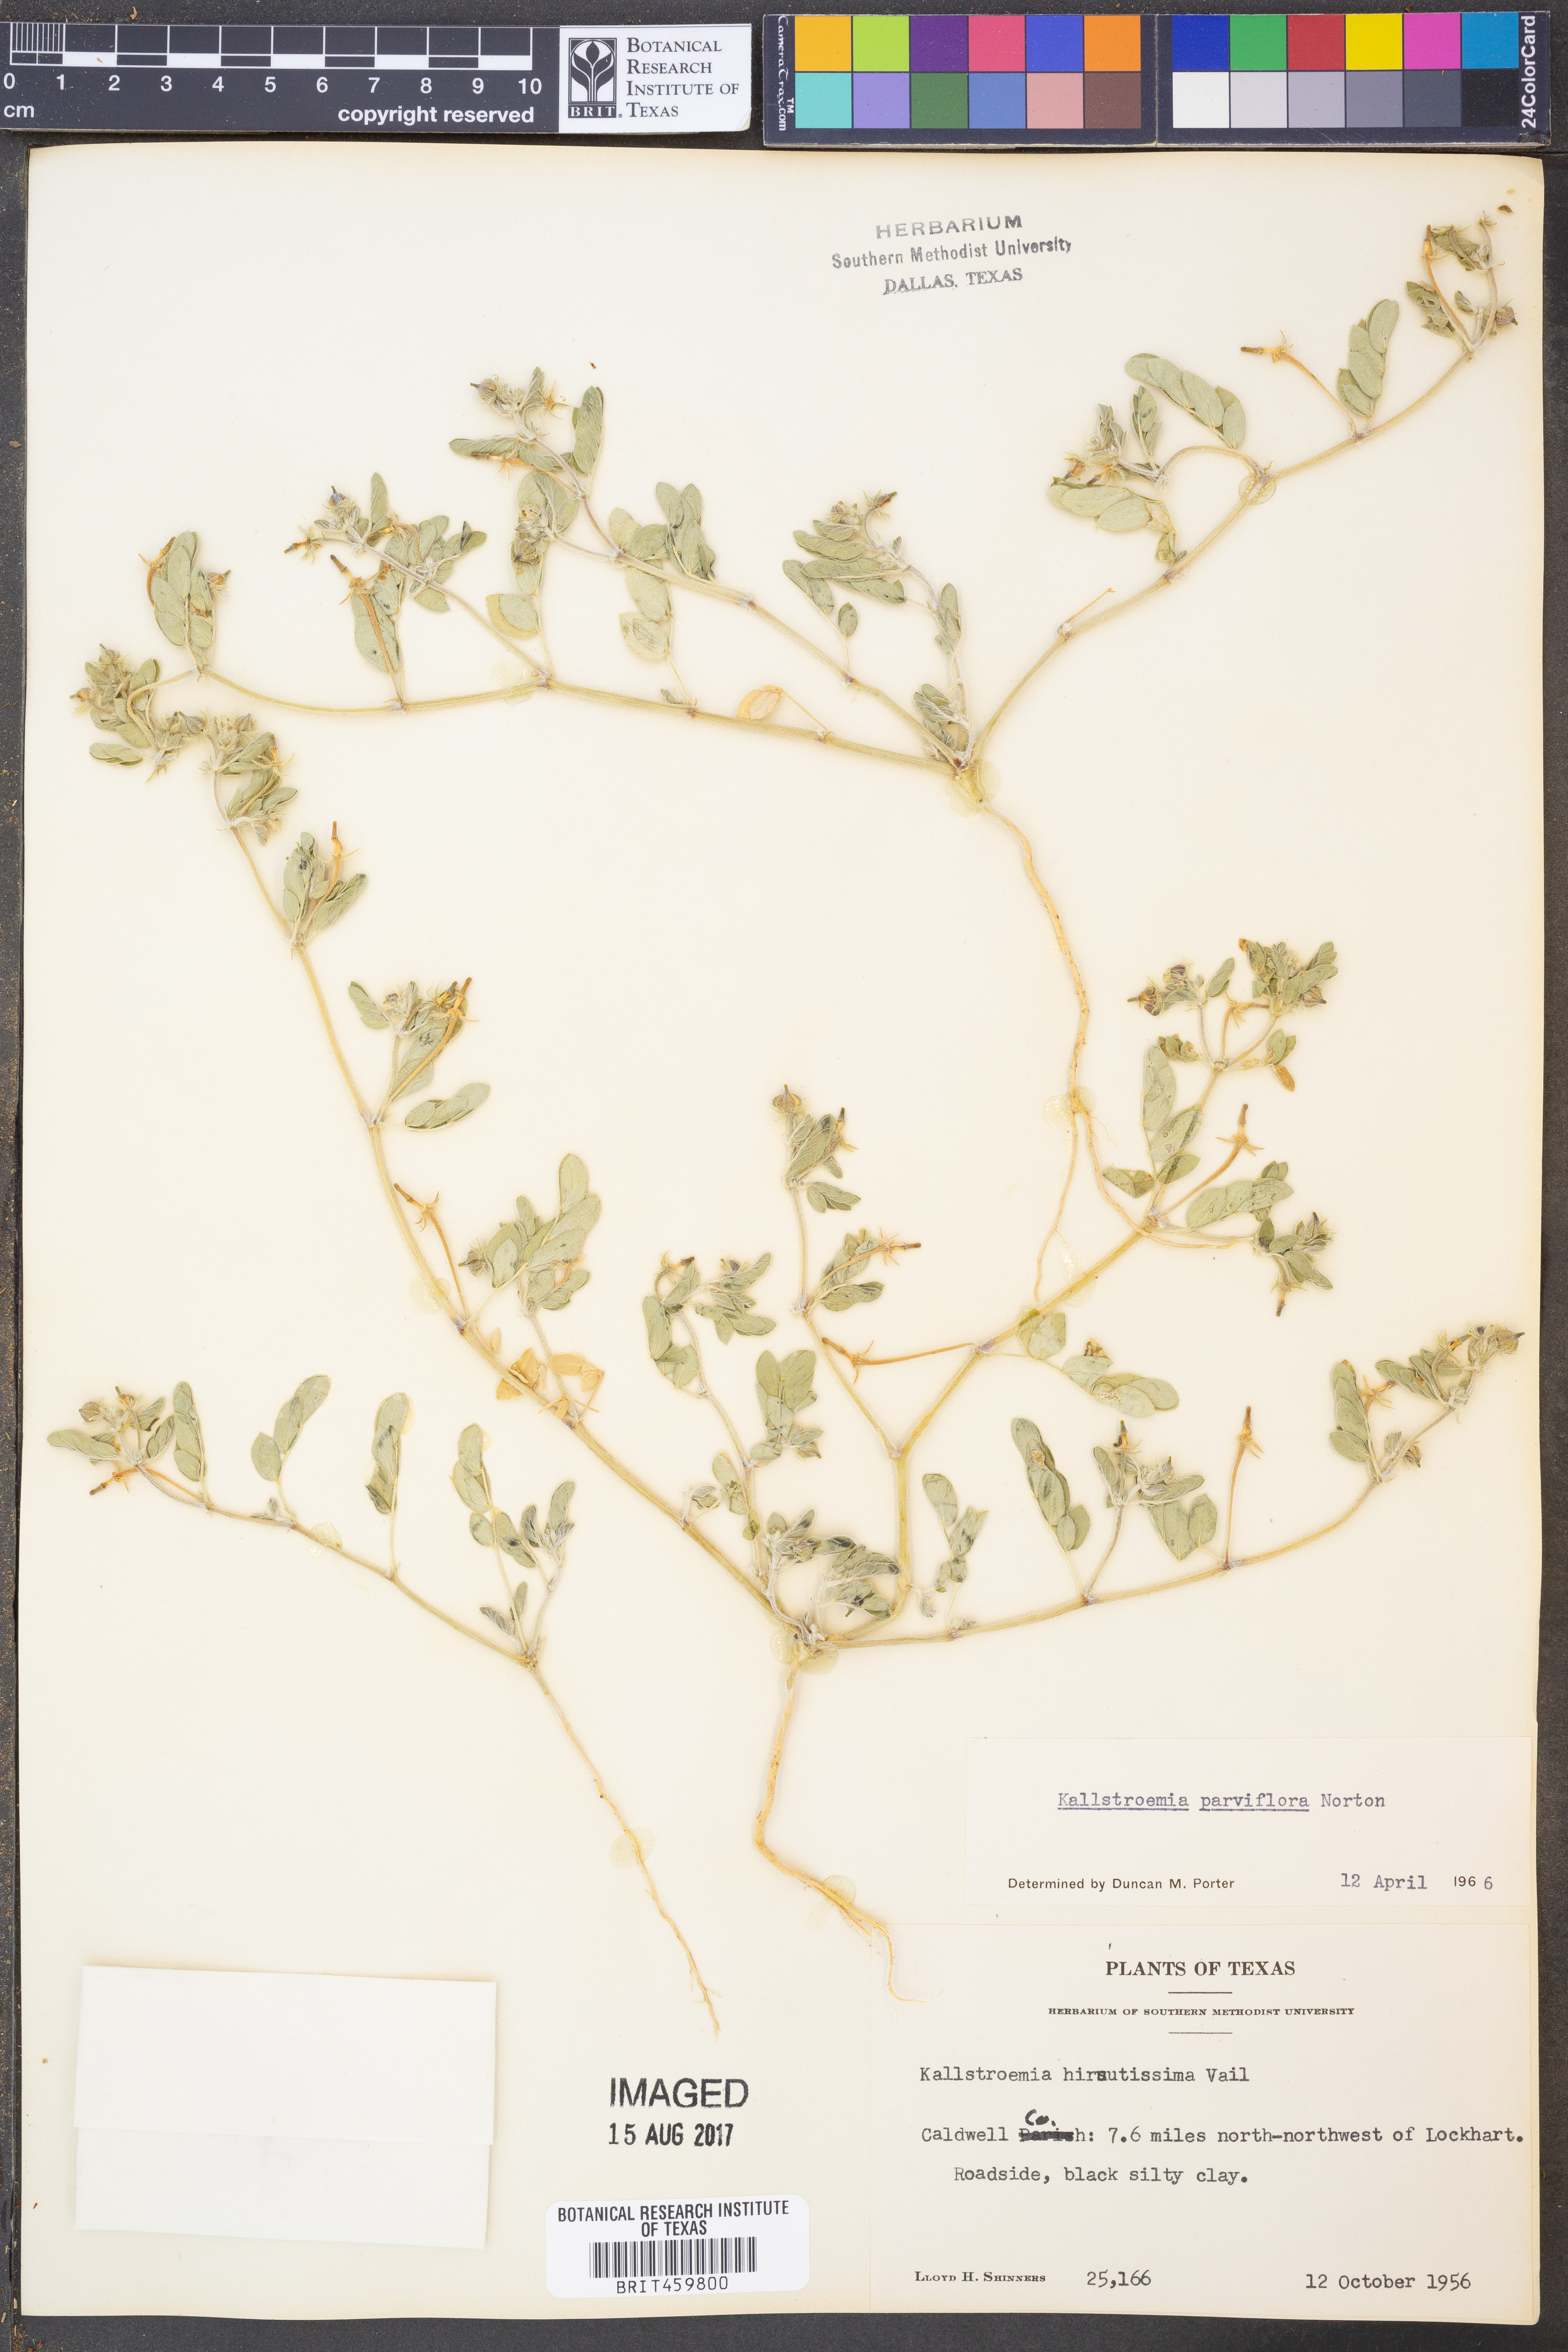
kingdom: Plantae
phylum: Tracheophyta
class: Magnoliopsida
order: Zygophyllales
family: Zygophyllaceae
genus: Kallstroemia
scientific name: Kallstroemia parviflora
